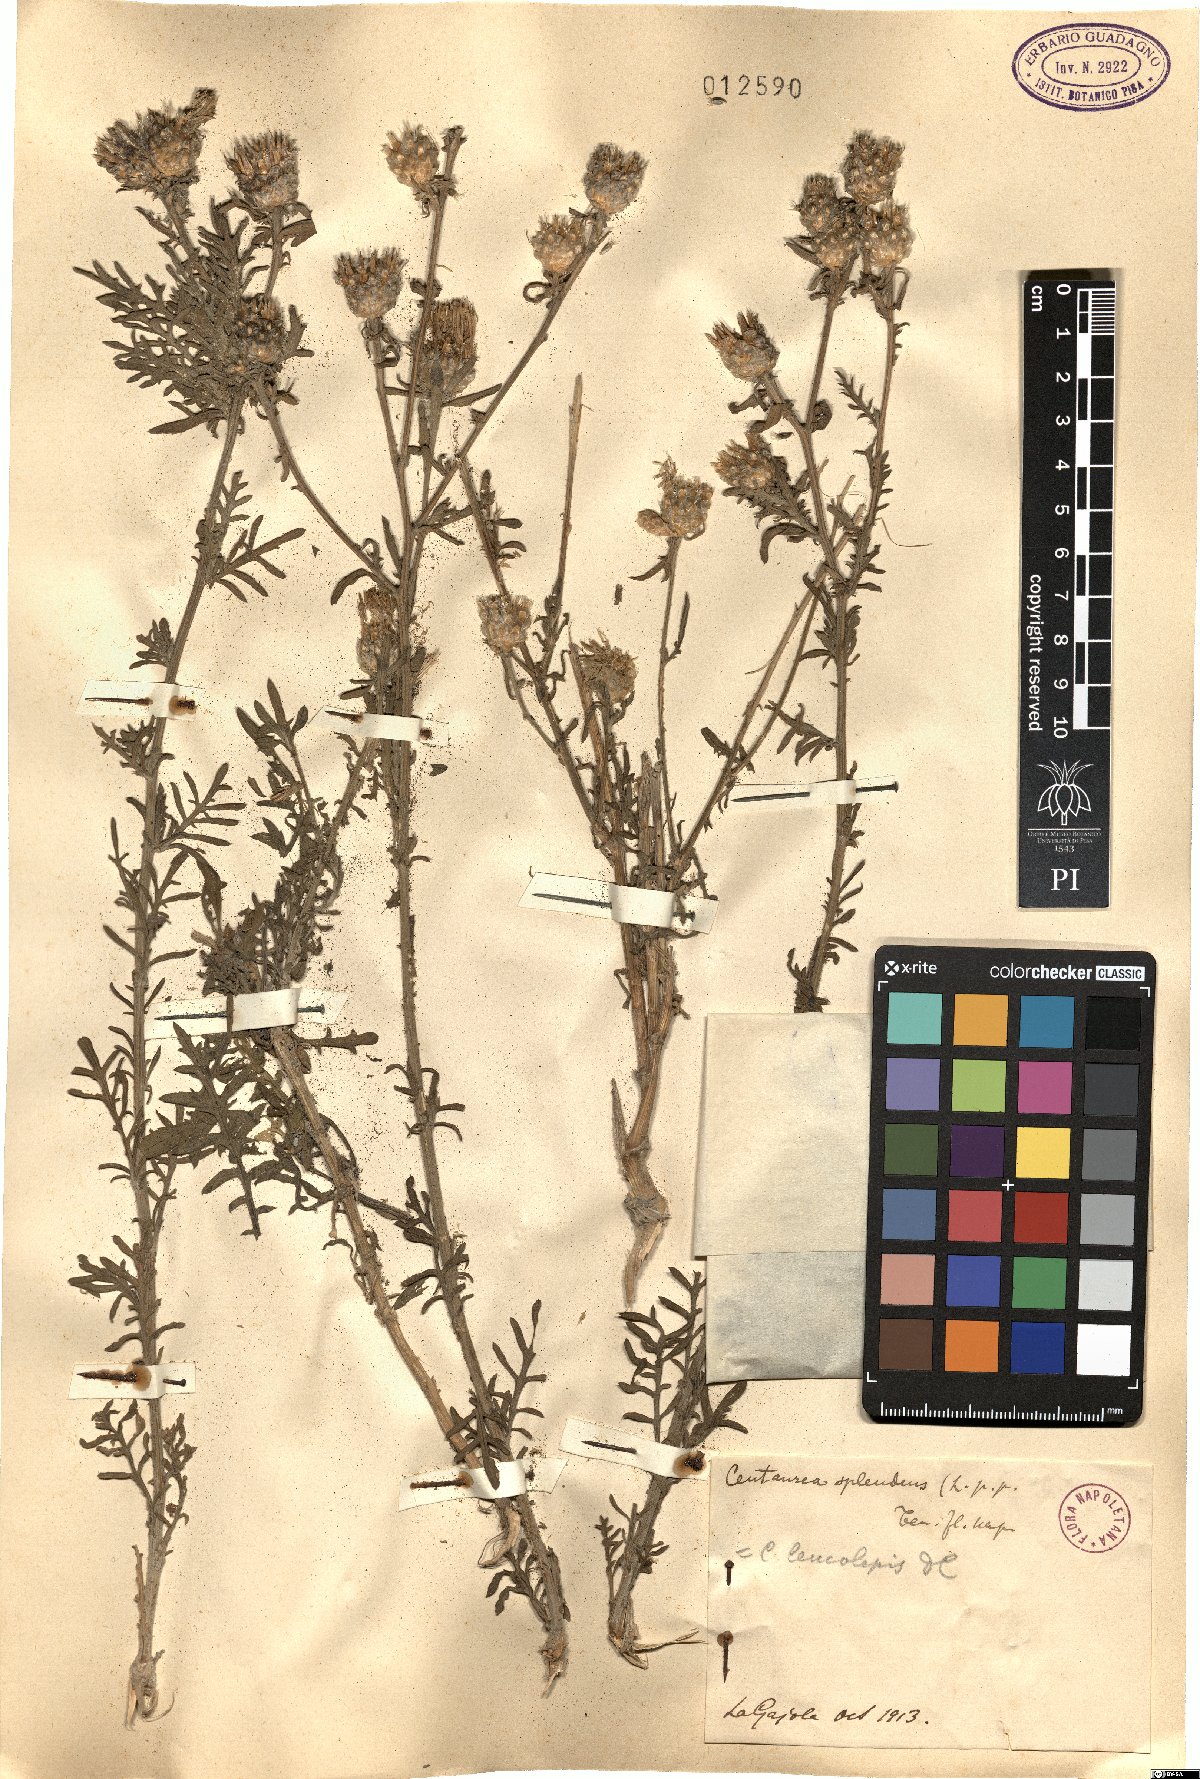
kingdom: Plantae
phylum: Tracheophyta
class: Magnoliopsida
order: Asterales
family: Asteraceae
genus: Centaurea
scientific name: Centaurea
